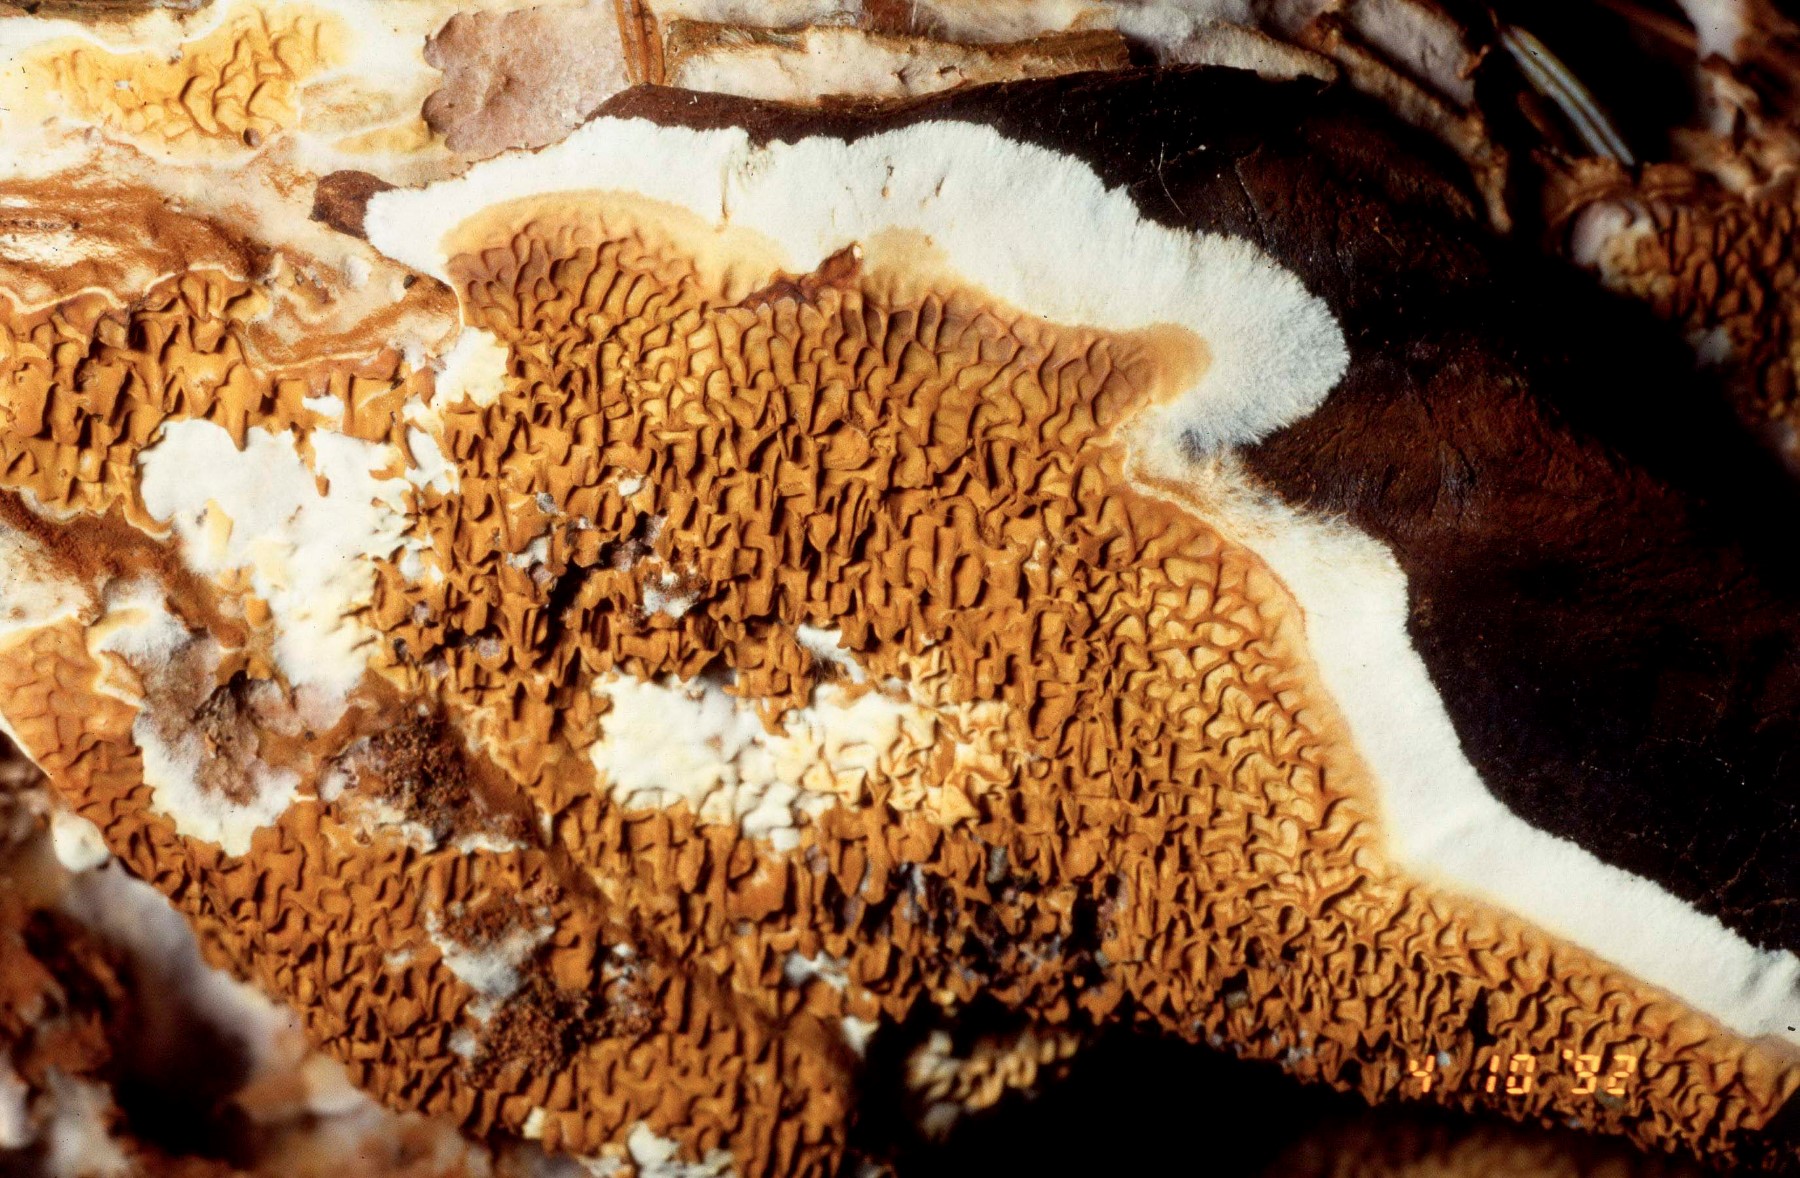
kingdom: Fungi
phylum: Basidiomycota
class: Agaricomycetes
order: Boletales
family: Serpulaceae
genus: Serpula
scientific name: Serpula himantioides
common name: tyndkødet hussvamp
